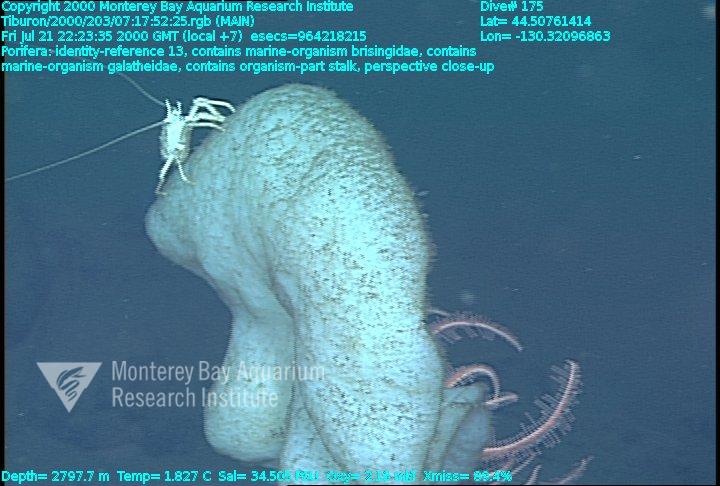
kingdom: Animalia
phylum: Porifera
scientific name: Porifera
